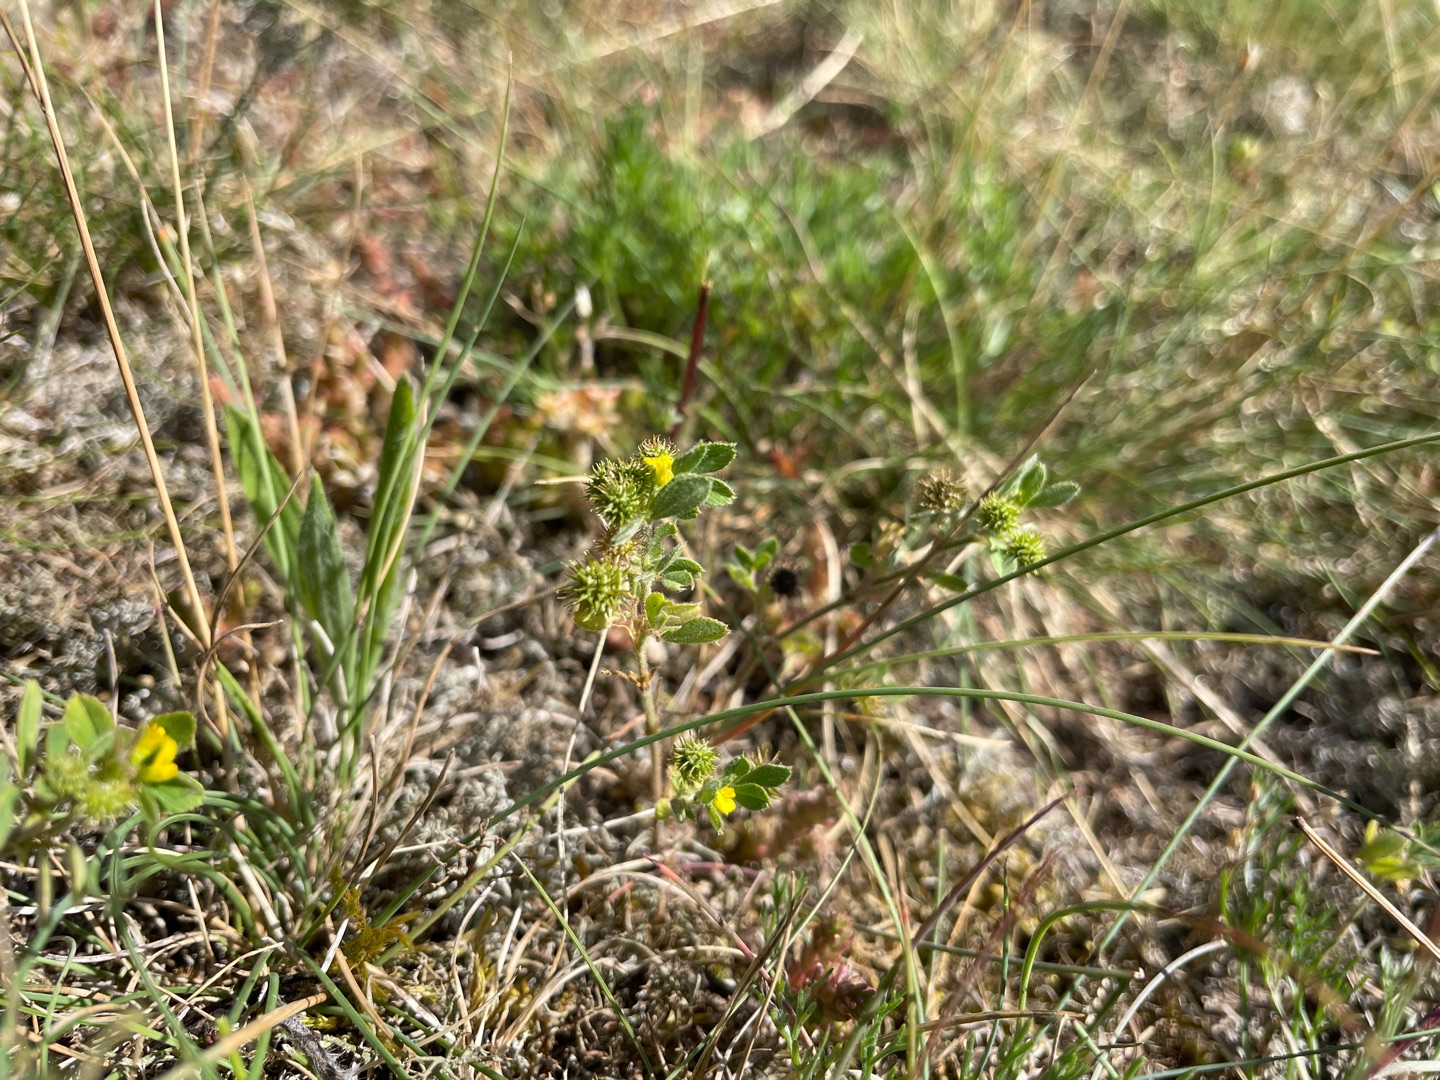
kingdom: Plantae
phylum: Tracheophyta
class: Magnoliopsida
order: Fabales
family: Fabaceae
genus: Medicago
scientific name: Medicago minima
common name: Liden sneglebælg
